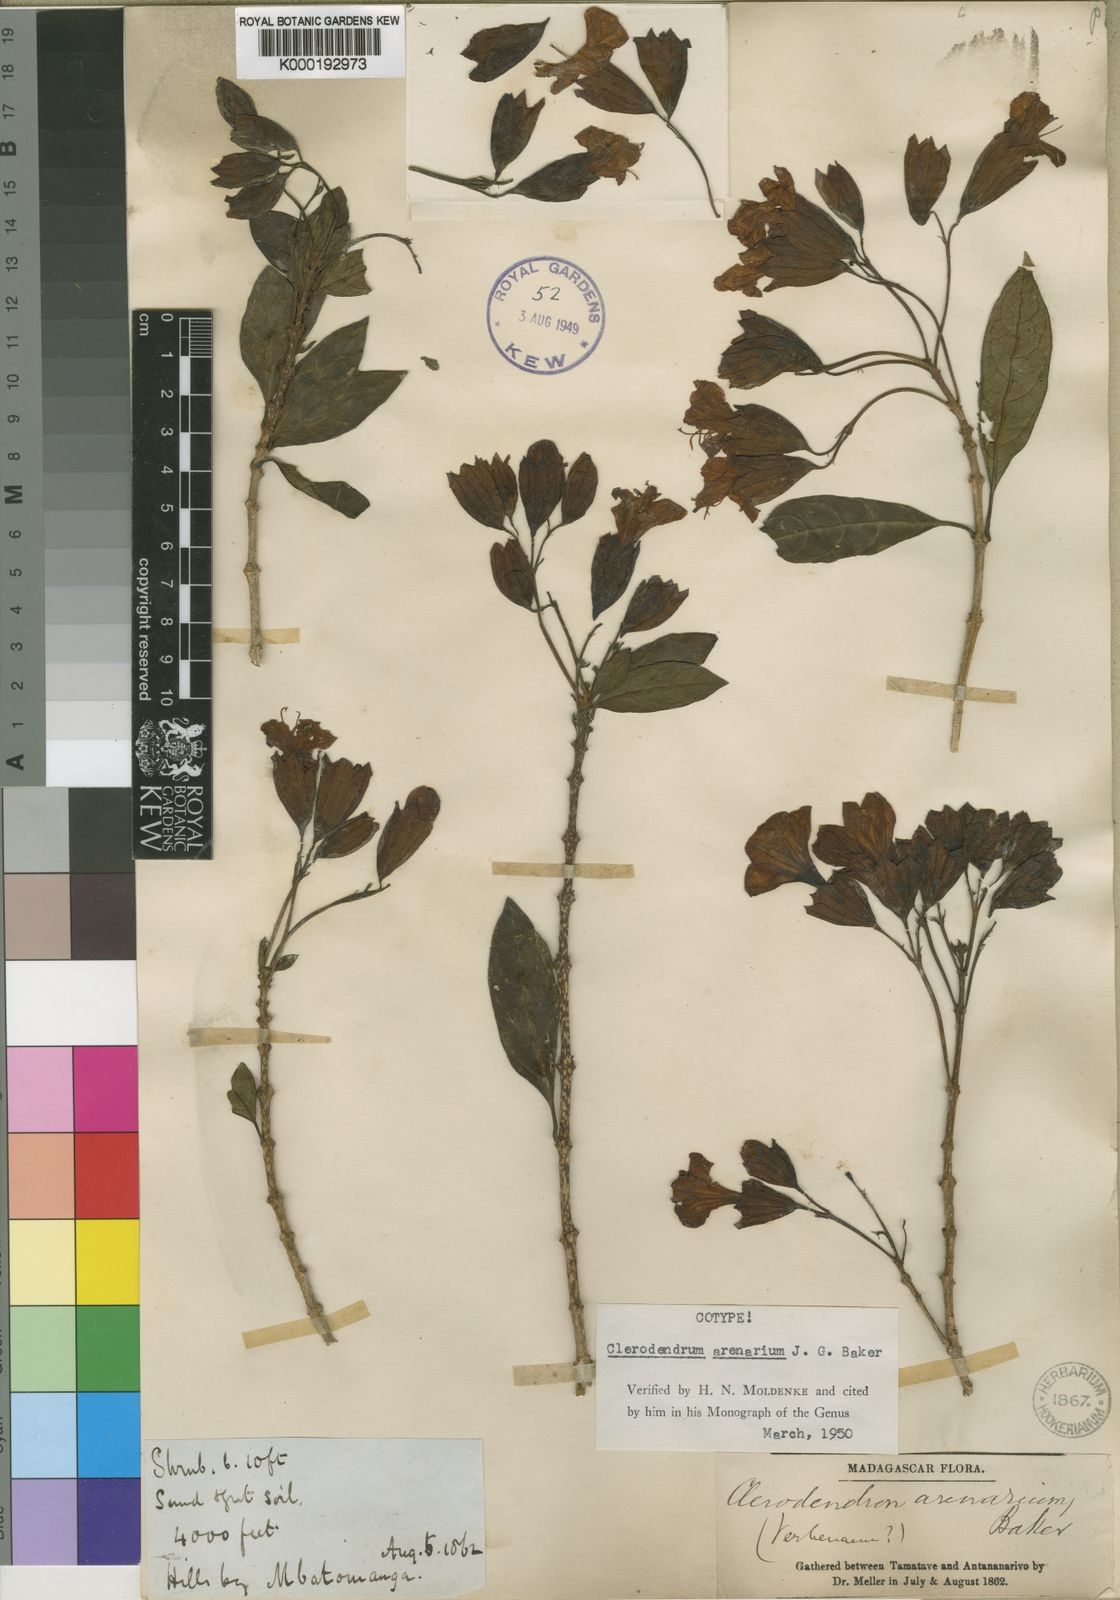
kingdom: Plantae
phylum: Tracheophyta
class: Magnoliopsida
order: Lamiales
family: Lamiaceae
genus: Clerodendrum
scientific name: Clerodendrum arenarium
